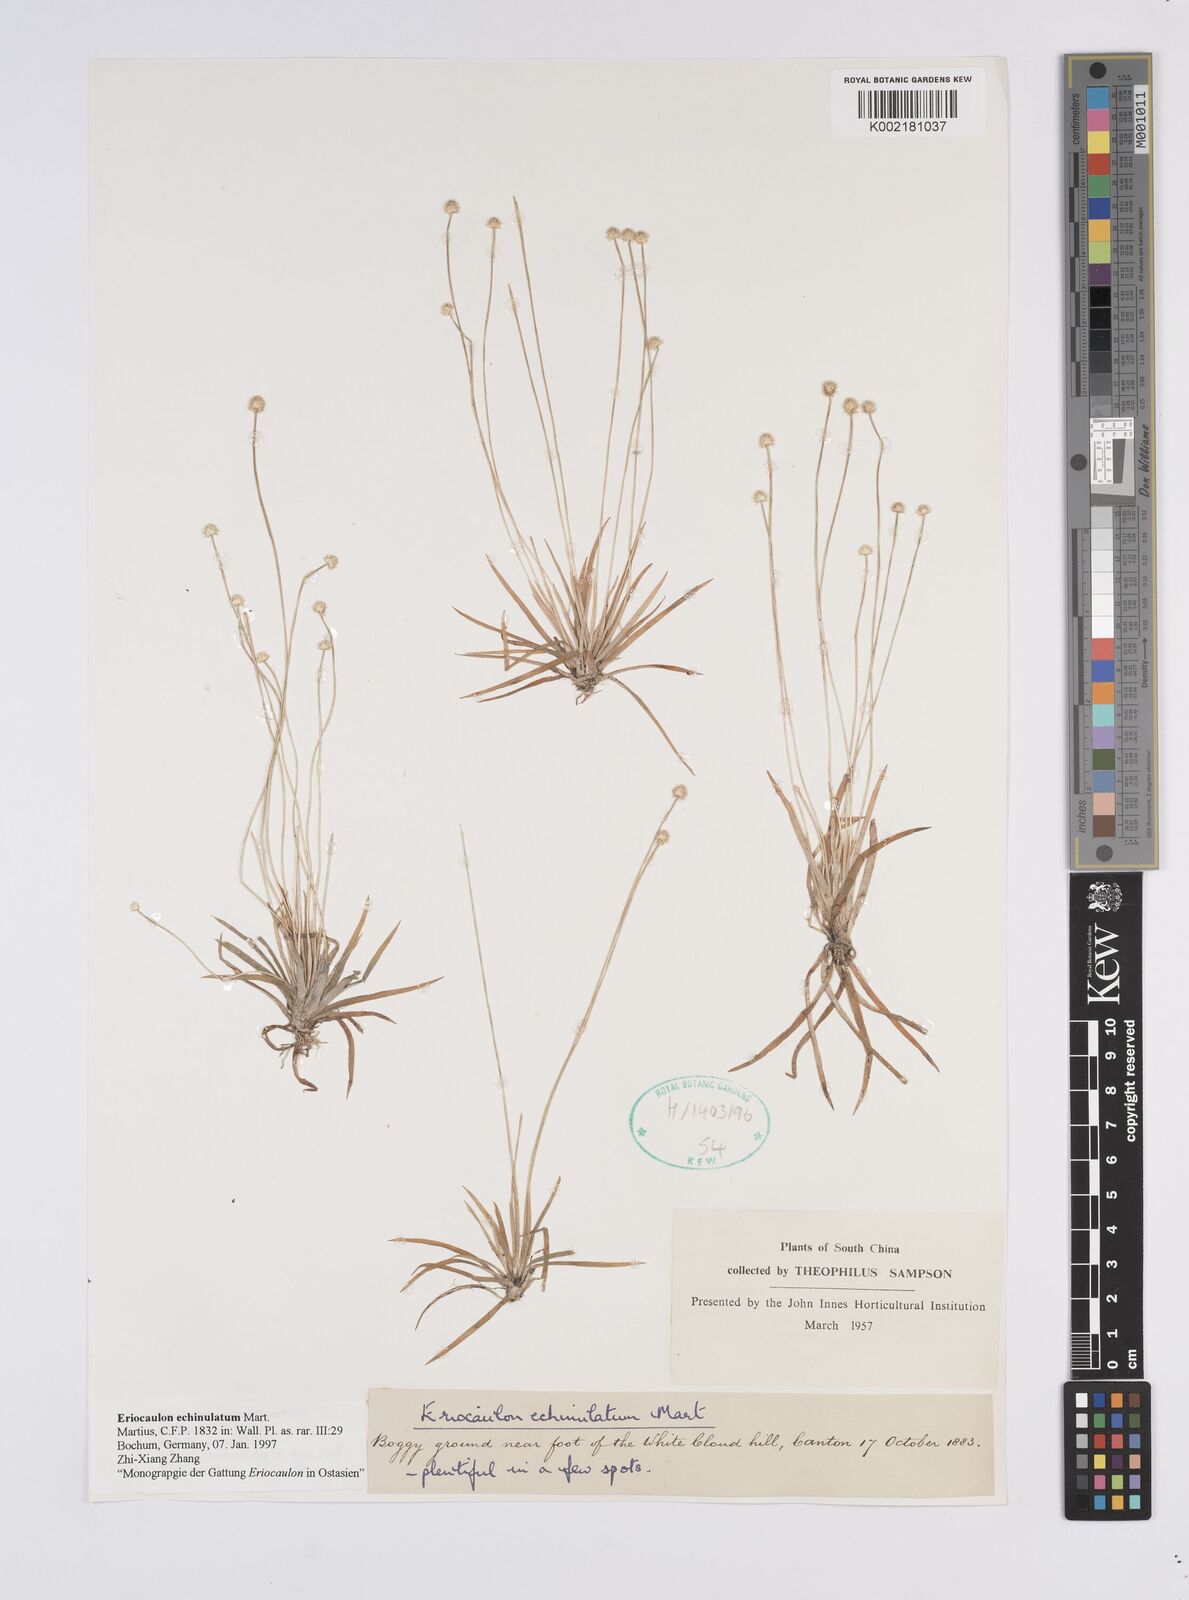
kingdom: Plantae
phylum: Tracheophyta
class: Liliopsida
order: Poales
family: Eriocaulaceae
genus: Eriocaulon
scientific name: Eriocaulon echinulatum
